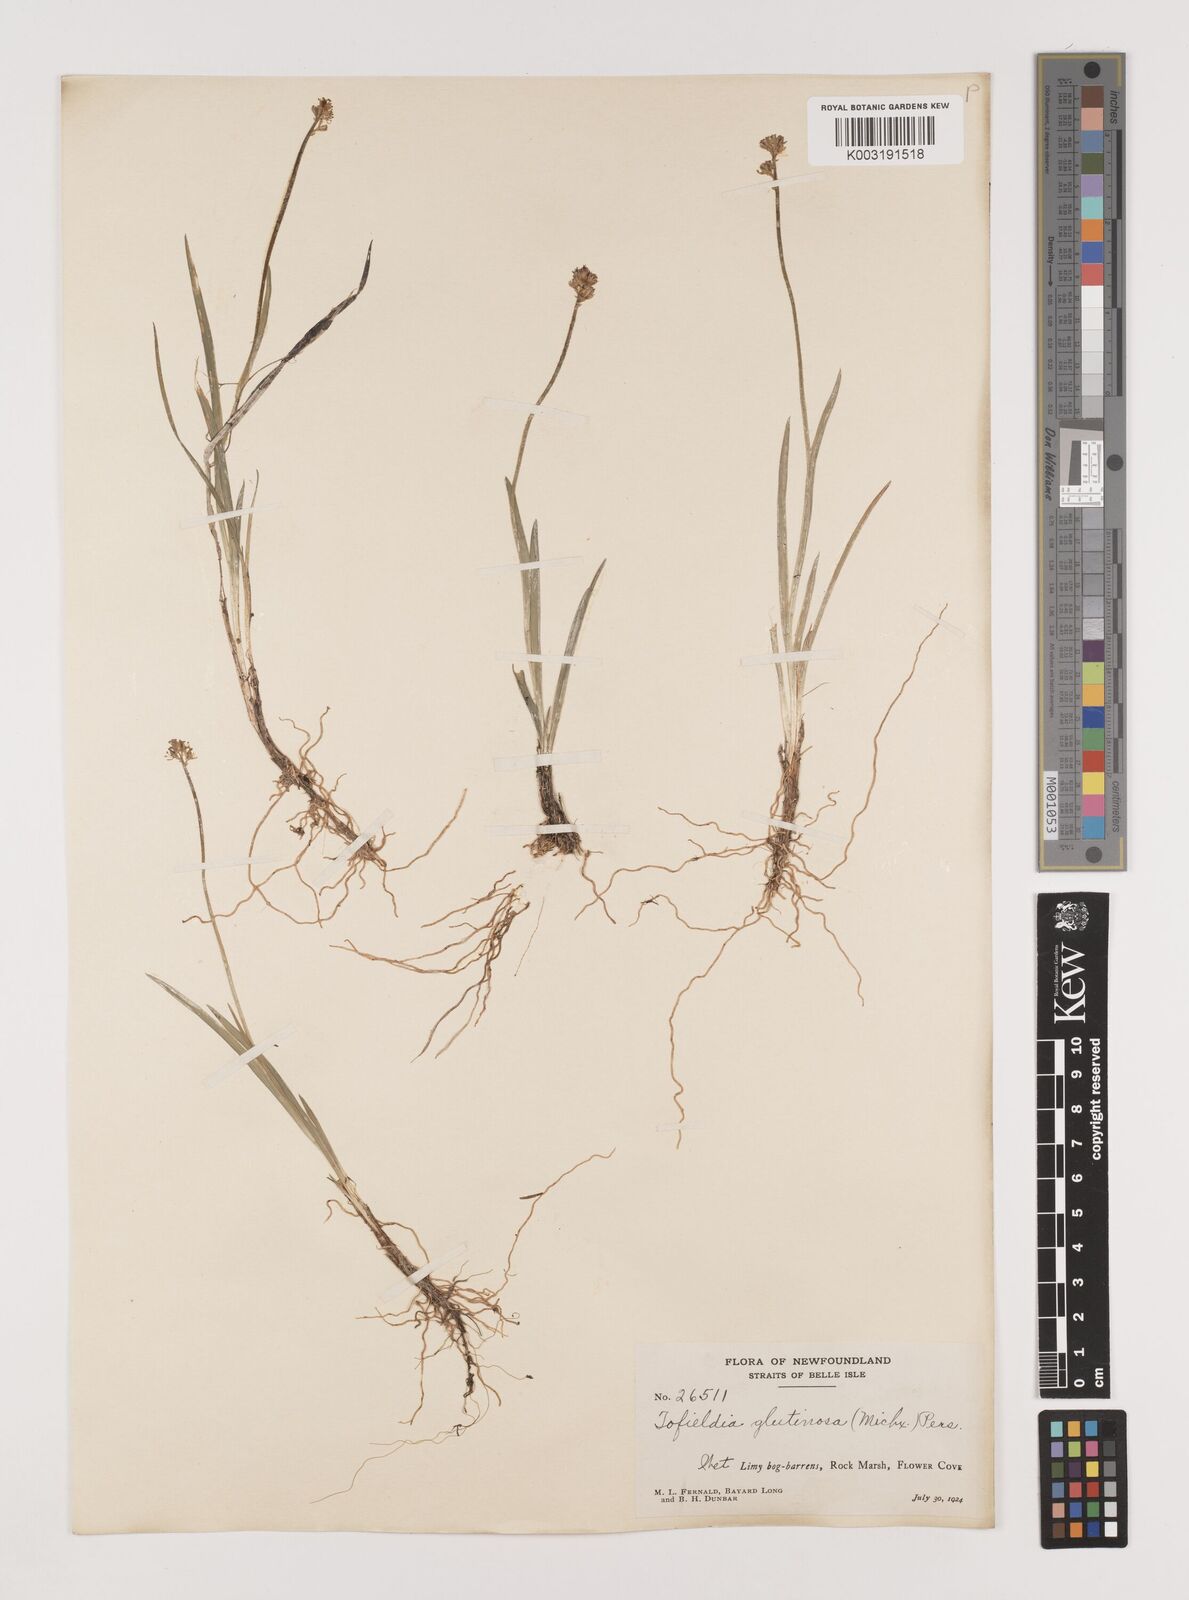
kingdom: Plantae
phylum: Tracheophyta
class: Liliopsida
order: Alismatales
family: Tofieldiaceae
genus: Triantha
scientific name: Triantha glutinosa
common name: Glutinous tofieldia
